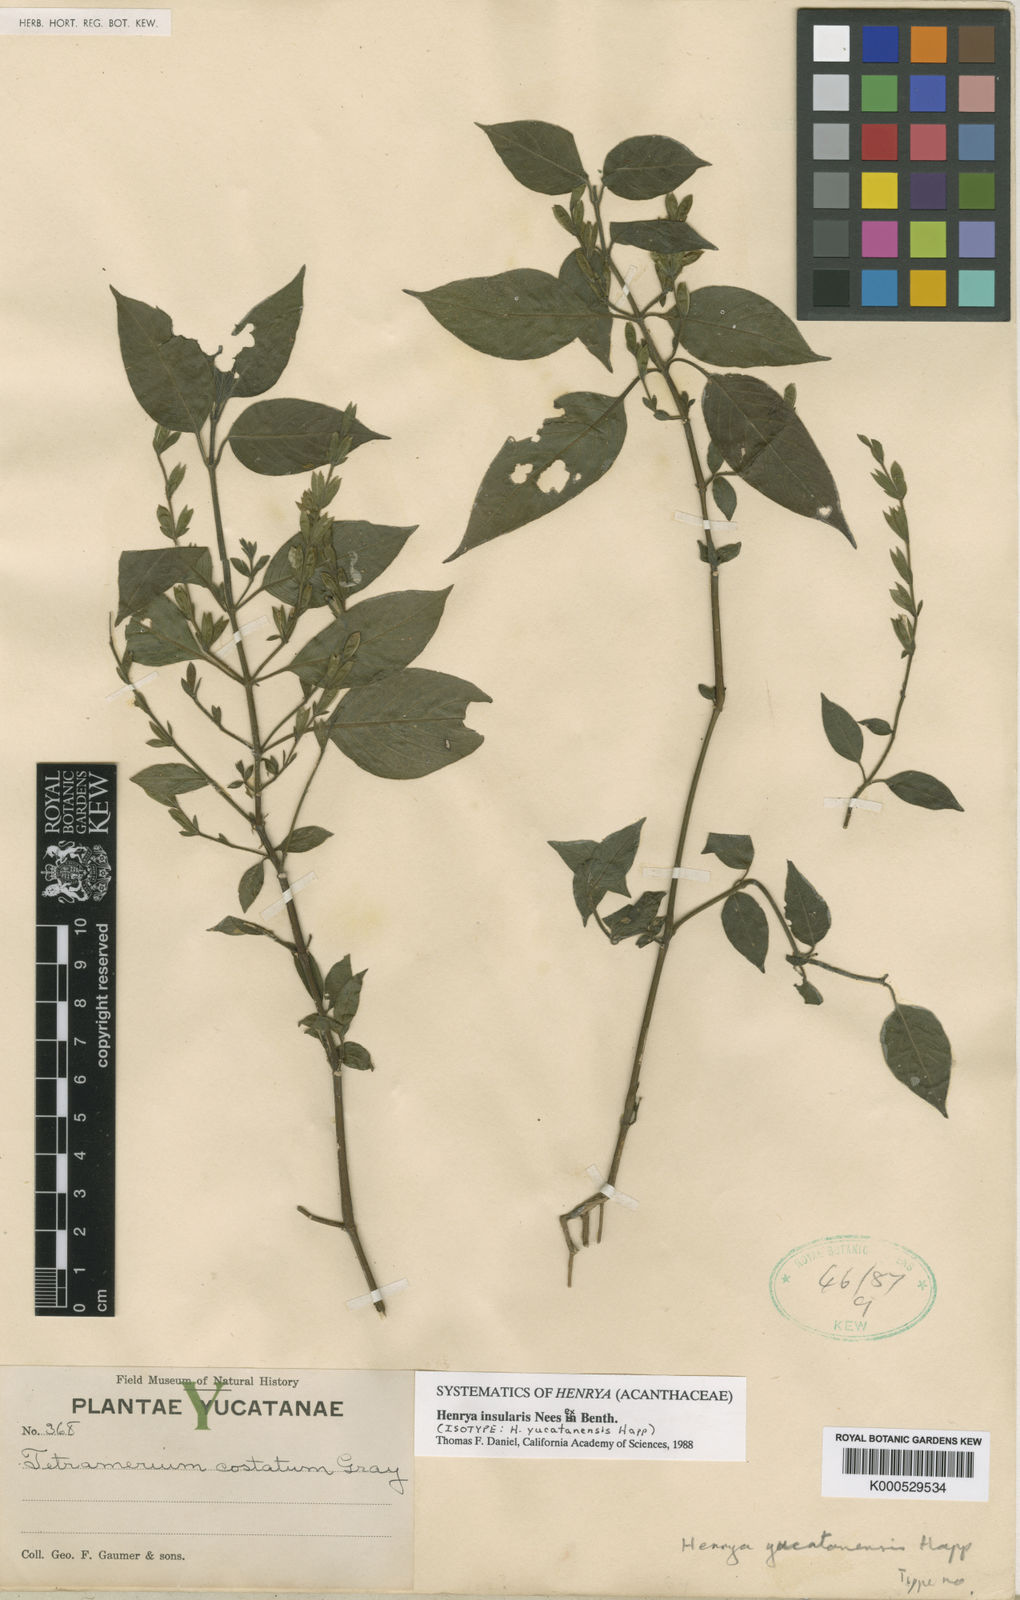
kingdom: Plantae
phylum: Tracheophyta
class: Magnoliopsida
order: Lamiales
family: Acanthaceae
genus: Henrya
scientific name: Henrya
